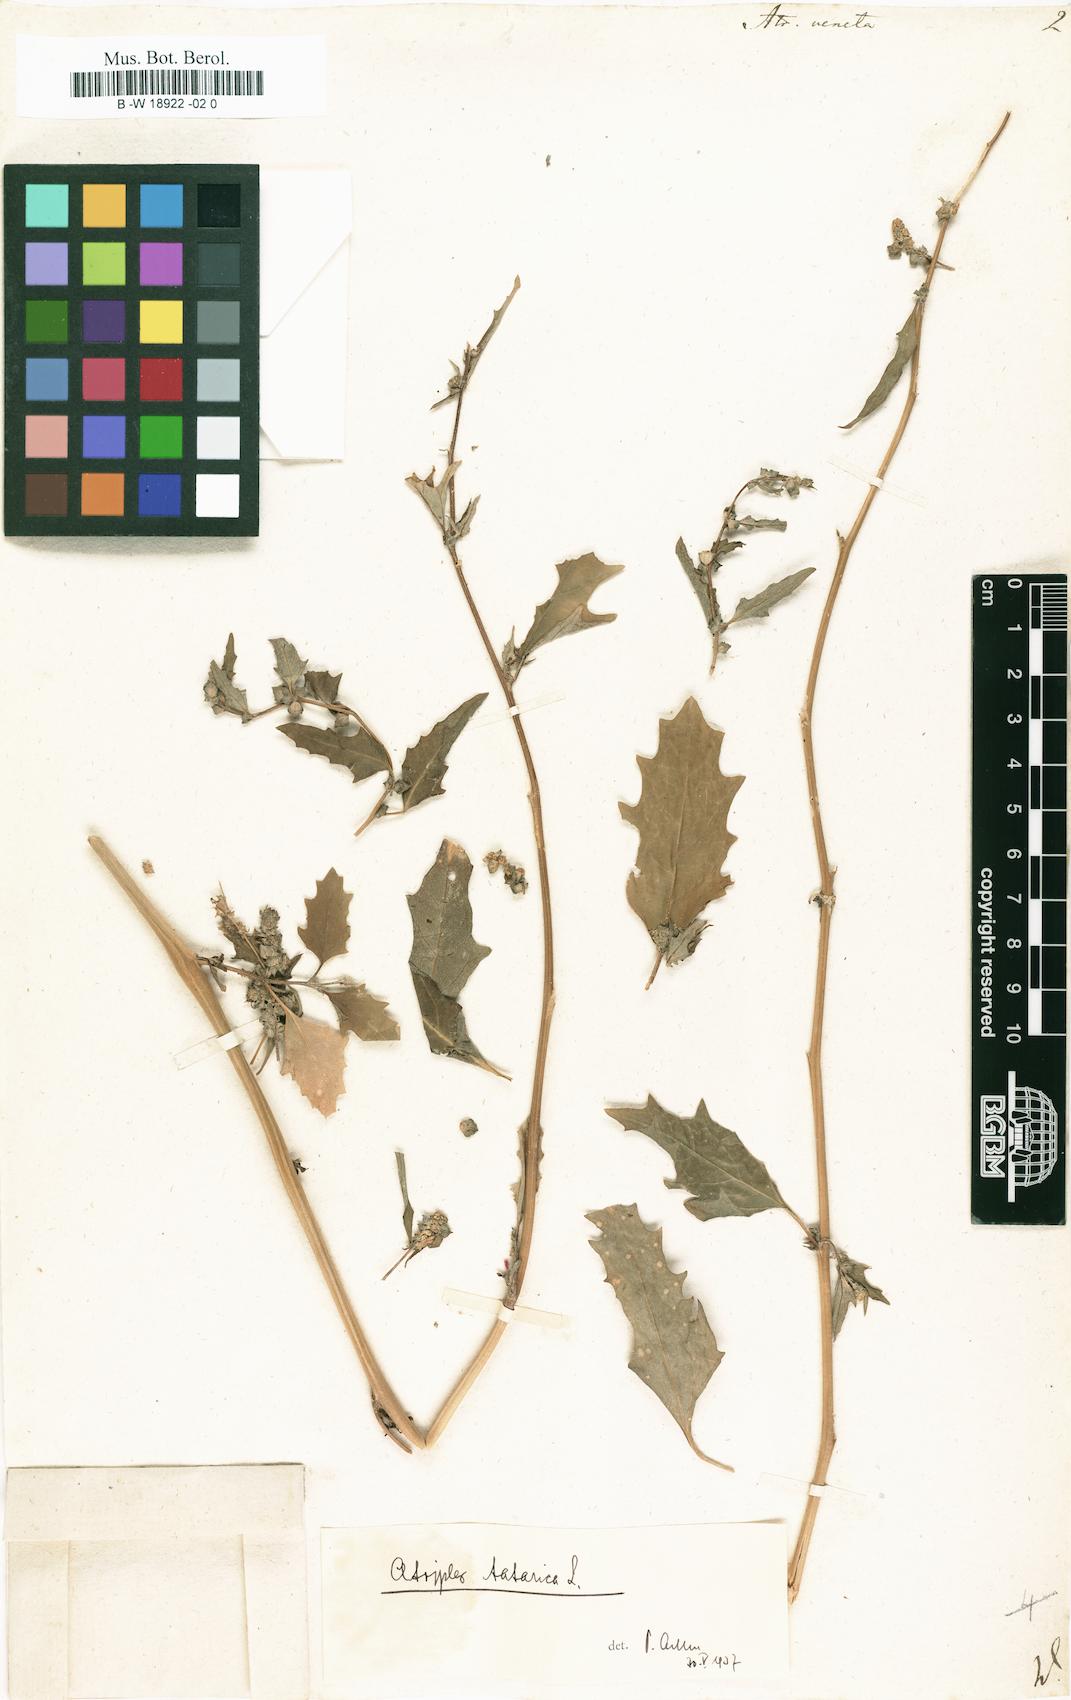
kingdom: Plantae
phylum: Tracheophyta
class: Magnoliopsida
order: Caryophyllales
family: Amaranthaceae
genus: Atriplex
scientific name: Atriplex tatarica
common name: Tatarian orache
